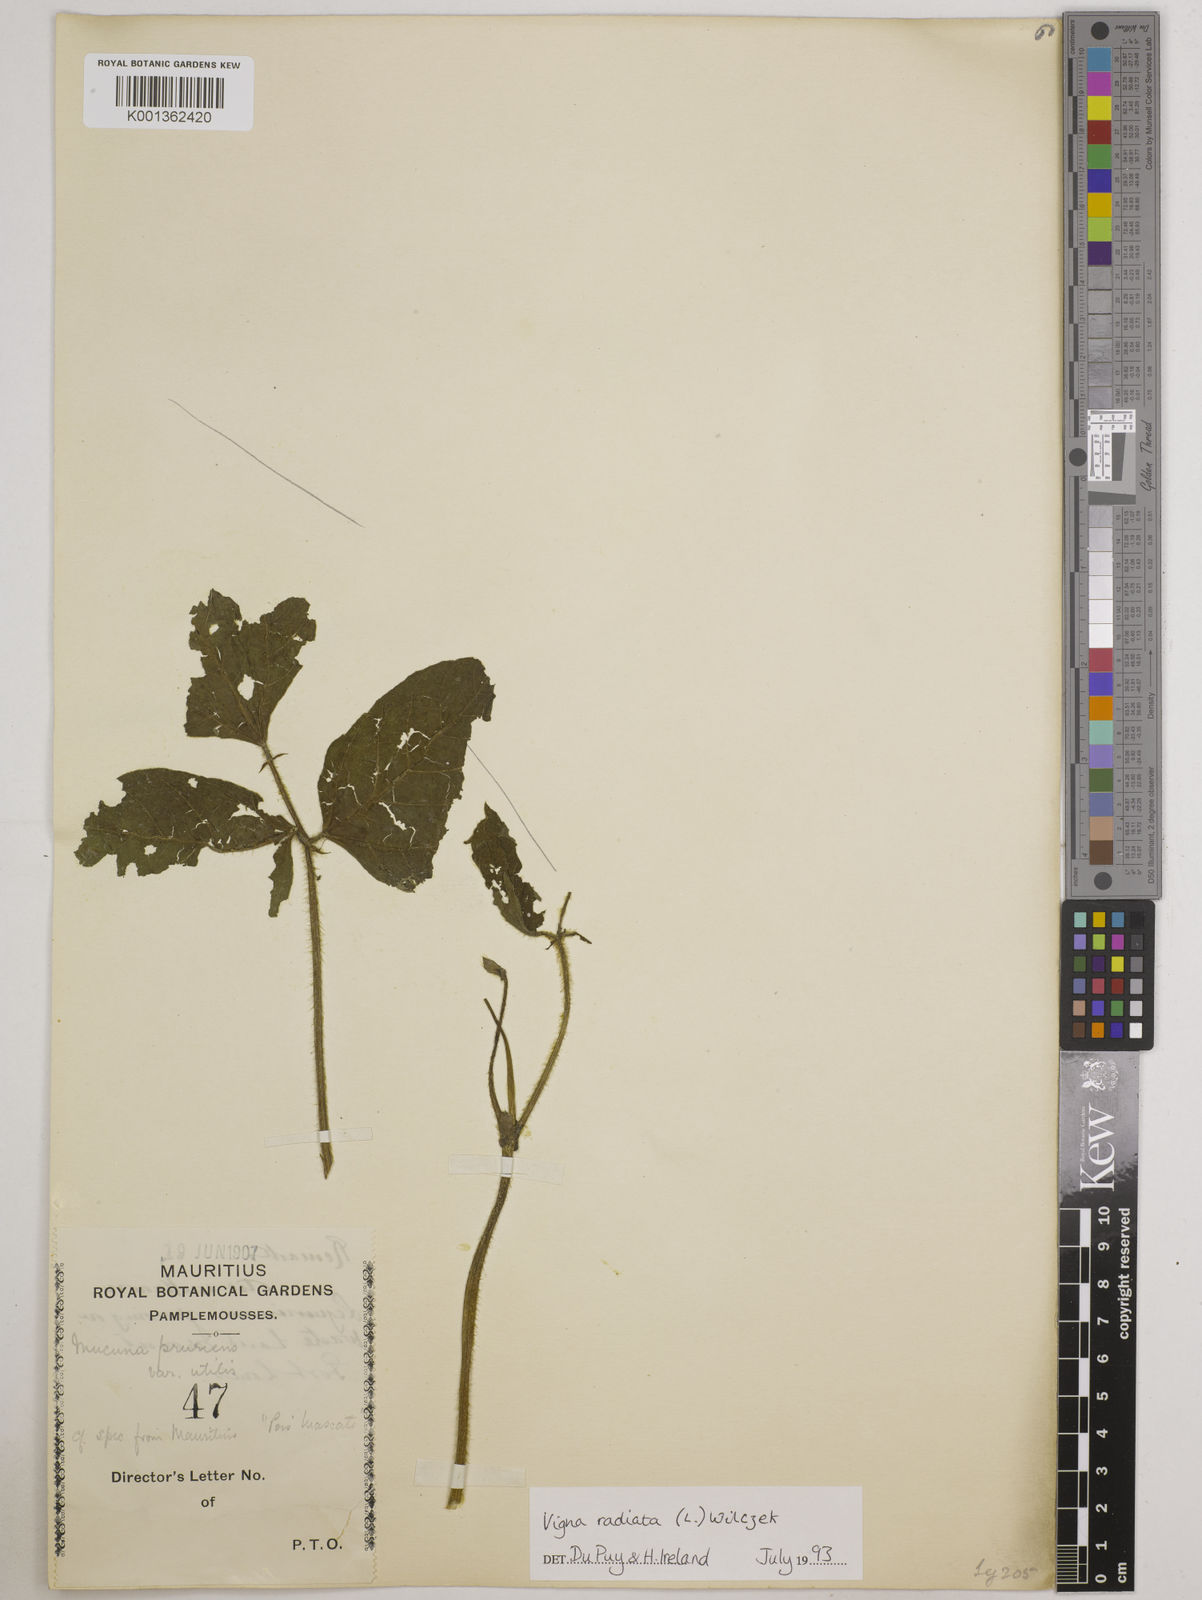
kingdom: Plantae
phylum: Tracheophyta
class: Magnoliopsida
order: Fabales
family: Fabaceae
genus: Vigna
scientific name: Vigna radiata
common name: Mung-bean
